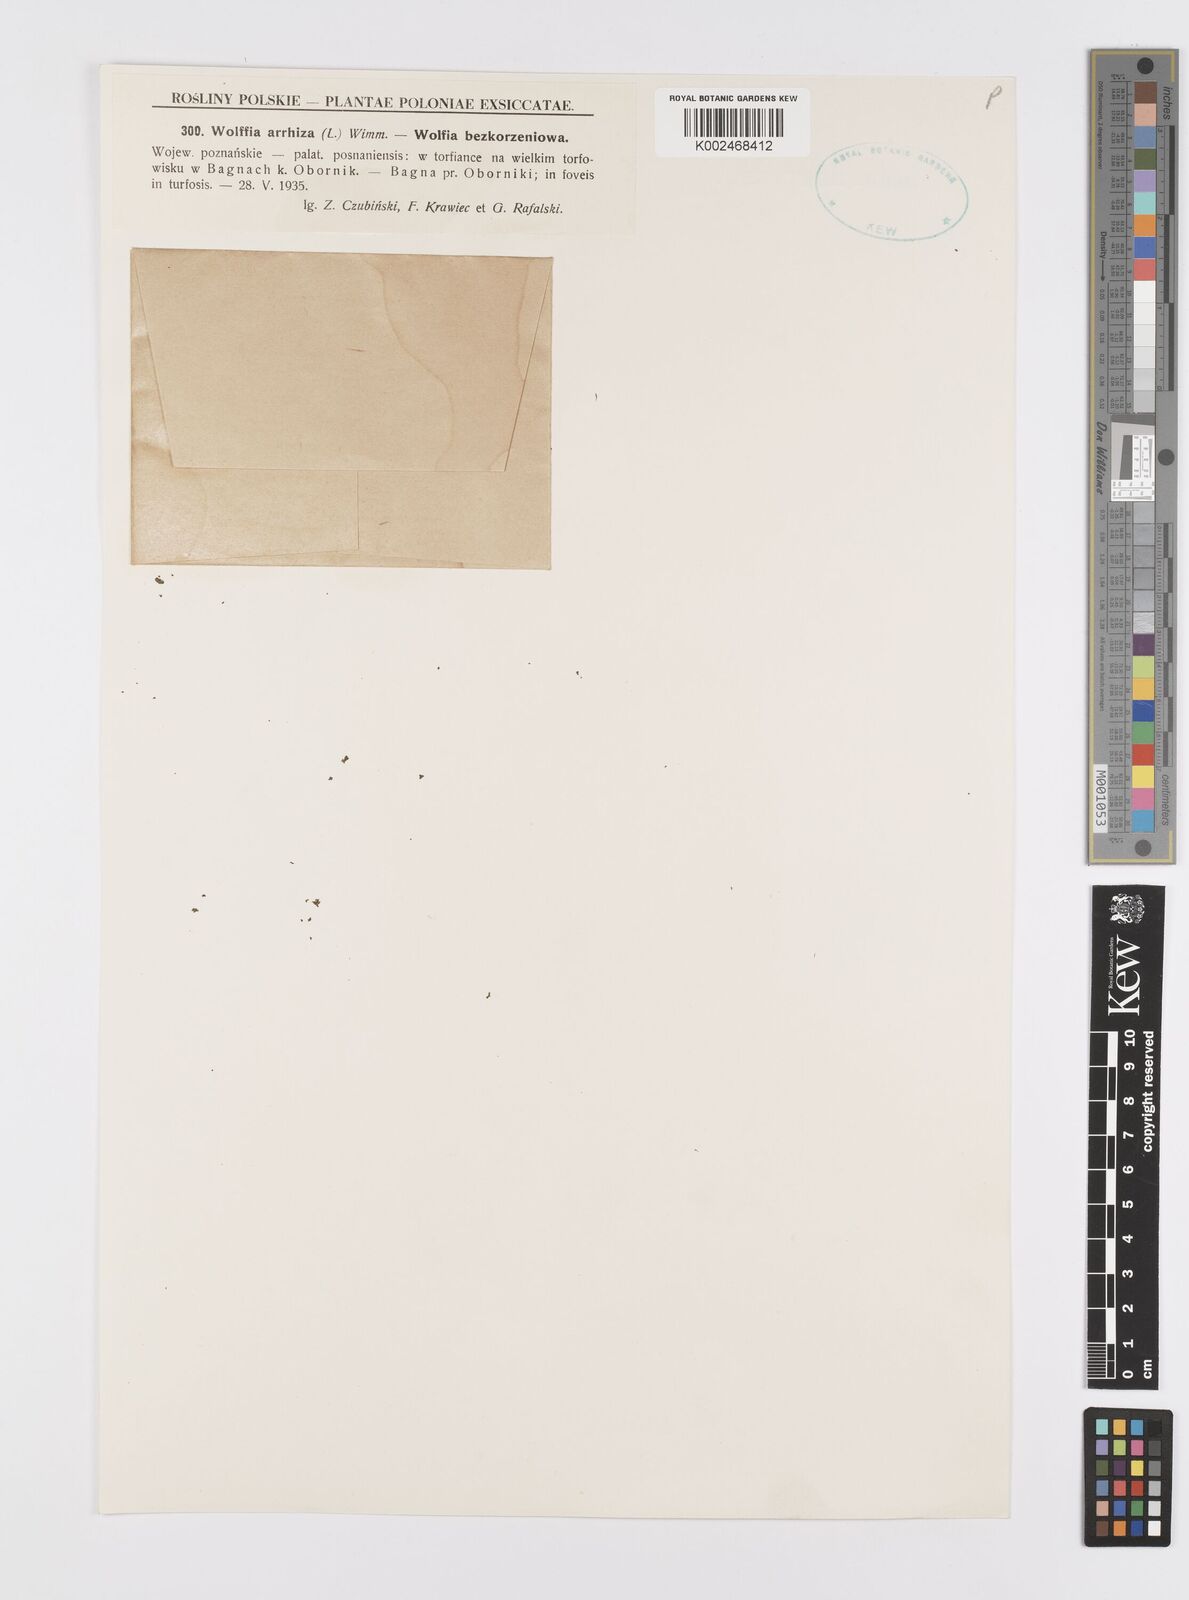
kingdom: Plantae
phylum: Tracheophyta
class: Liliopsida
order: Alismatales
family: Araceae
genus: Wolffia
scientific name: Wolffia arrhiza
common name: Rootless duckweed
